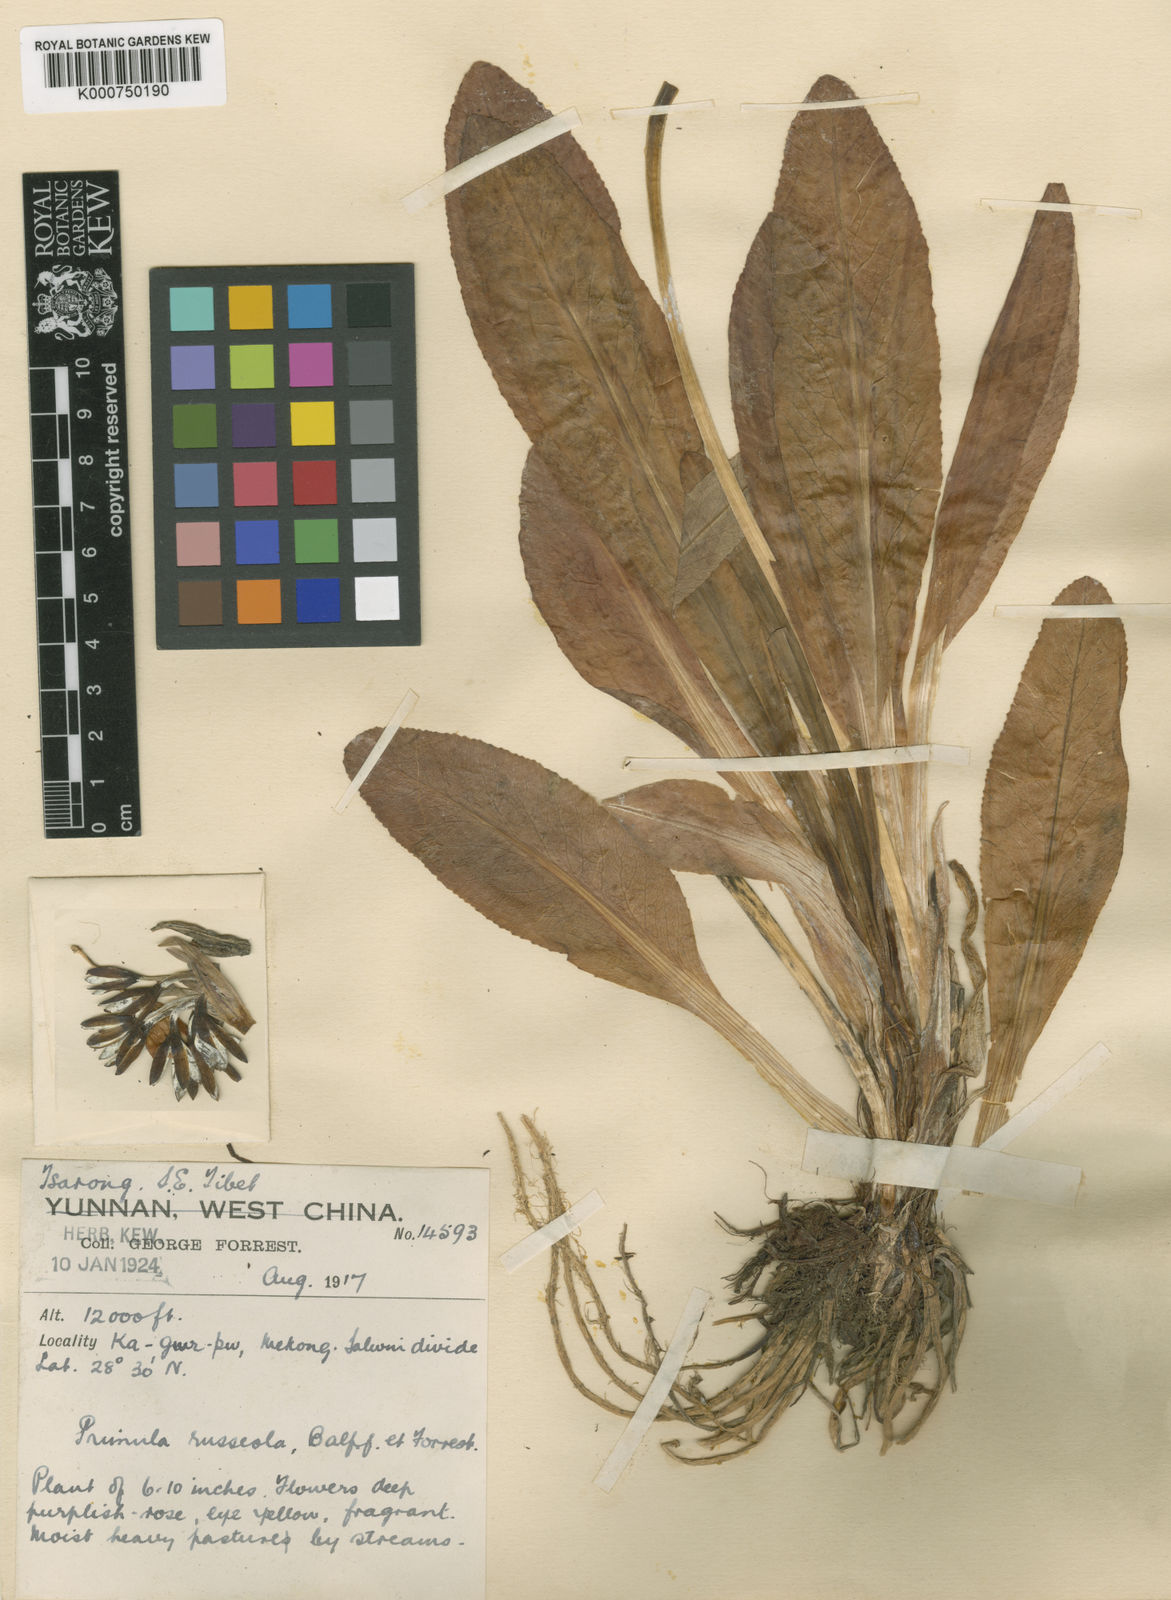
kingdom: Plantae
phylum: Tracheophyta
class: Magnoliopsida
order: Ericales
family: Primulaceae
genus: Primula
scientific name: Primula russeola
